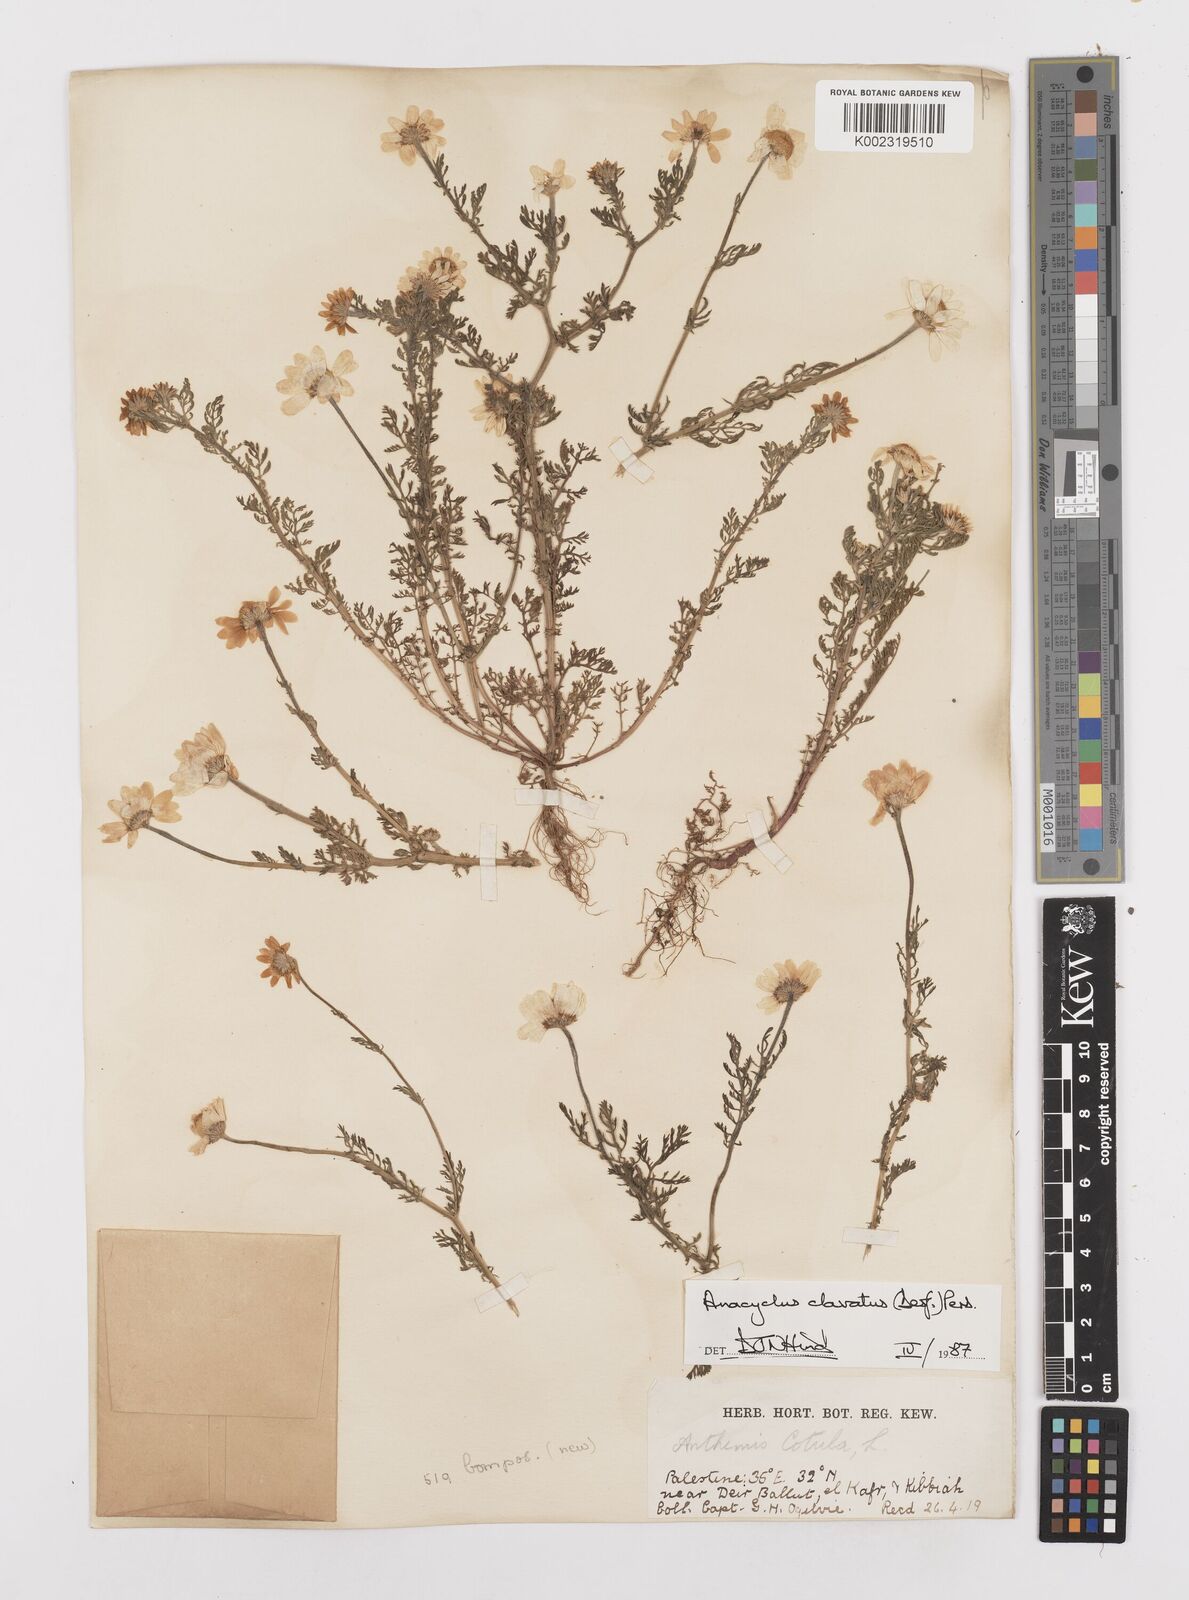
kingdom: Plantae
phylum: Tracheophyta
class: Magnoliopsida
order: Asterales
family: Asteraceae
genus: Anacyclus
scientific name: Anacyclus clavatus
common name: Whitebuttons
